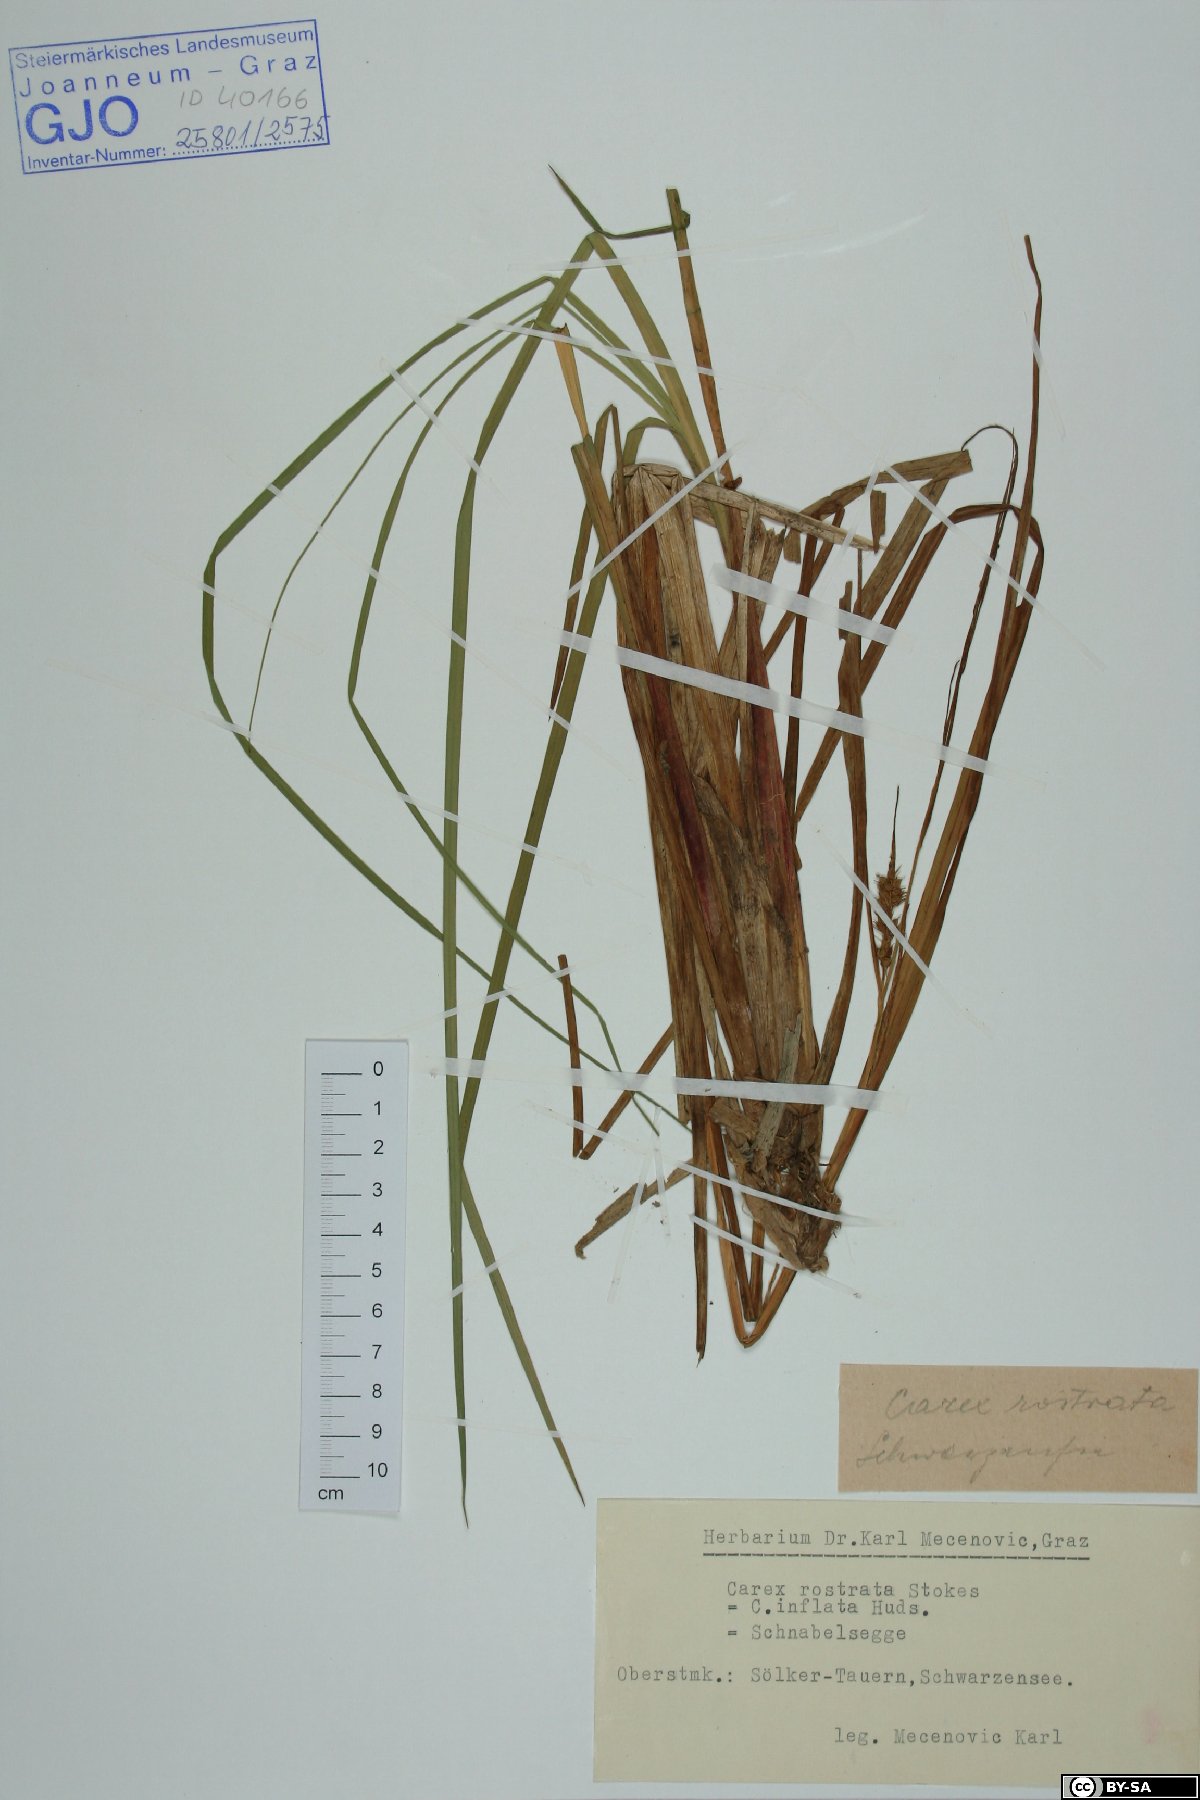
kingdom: Plantae
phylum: Tracheophyta
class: Liliopsida
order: Poales
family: Cyperaceae
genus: Carex
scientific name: Carex rostrata
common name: Bottle sedge
